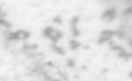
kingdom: Animalia
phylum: Chordata
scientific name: Chordata
